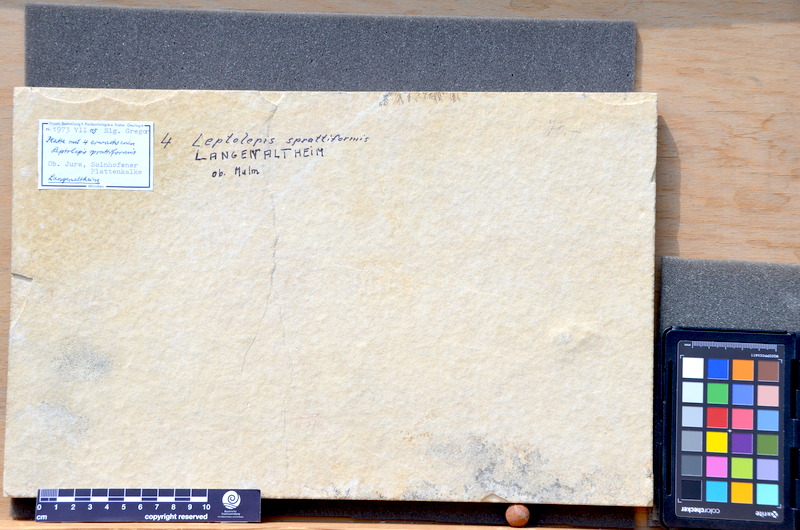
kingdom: Animalia
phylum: Chordata
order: Salmoniformes
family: Orthogonikleithridae
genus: Leptolepides
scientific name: Leptolepides sprattiformis
